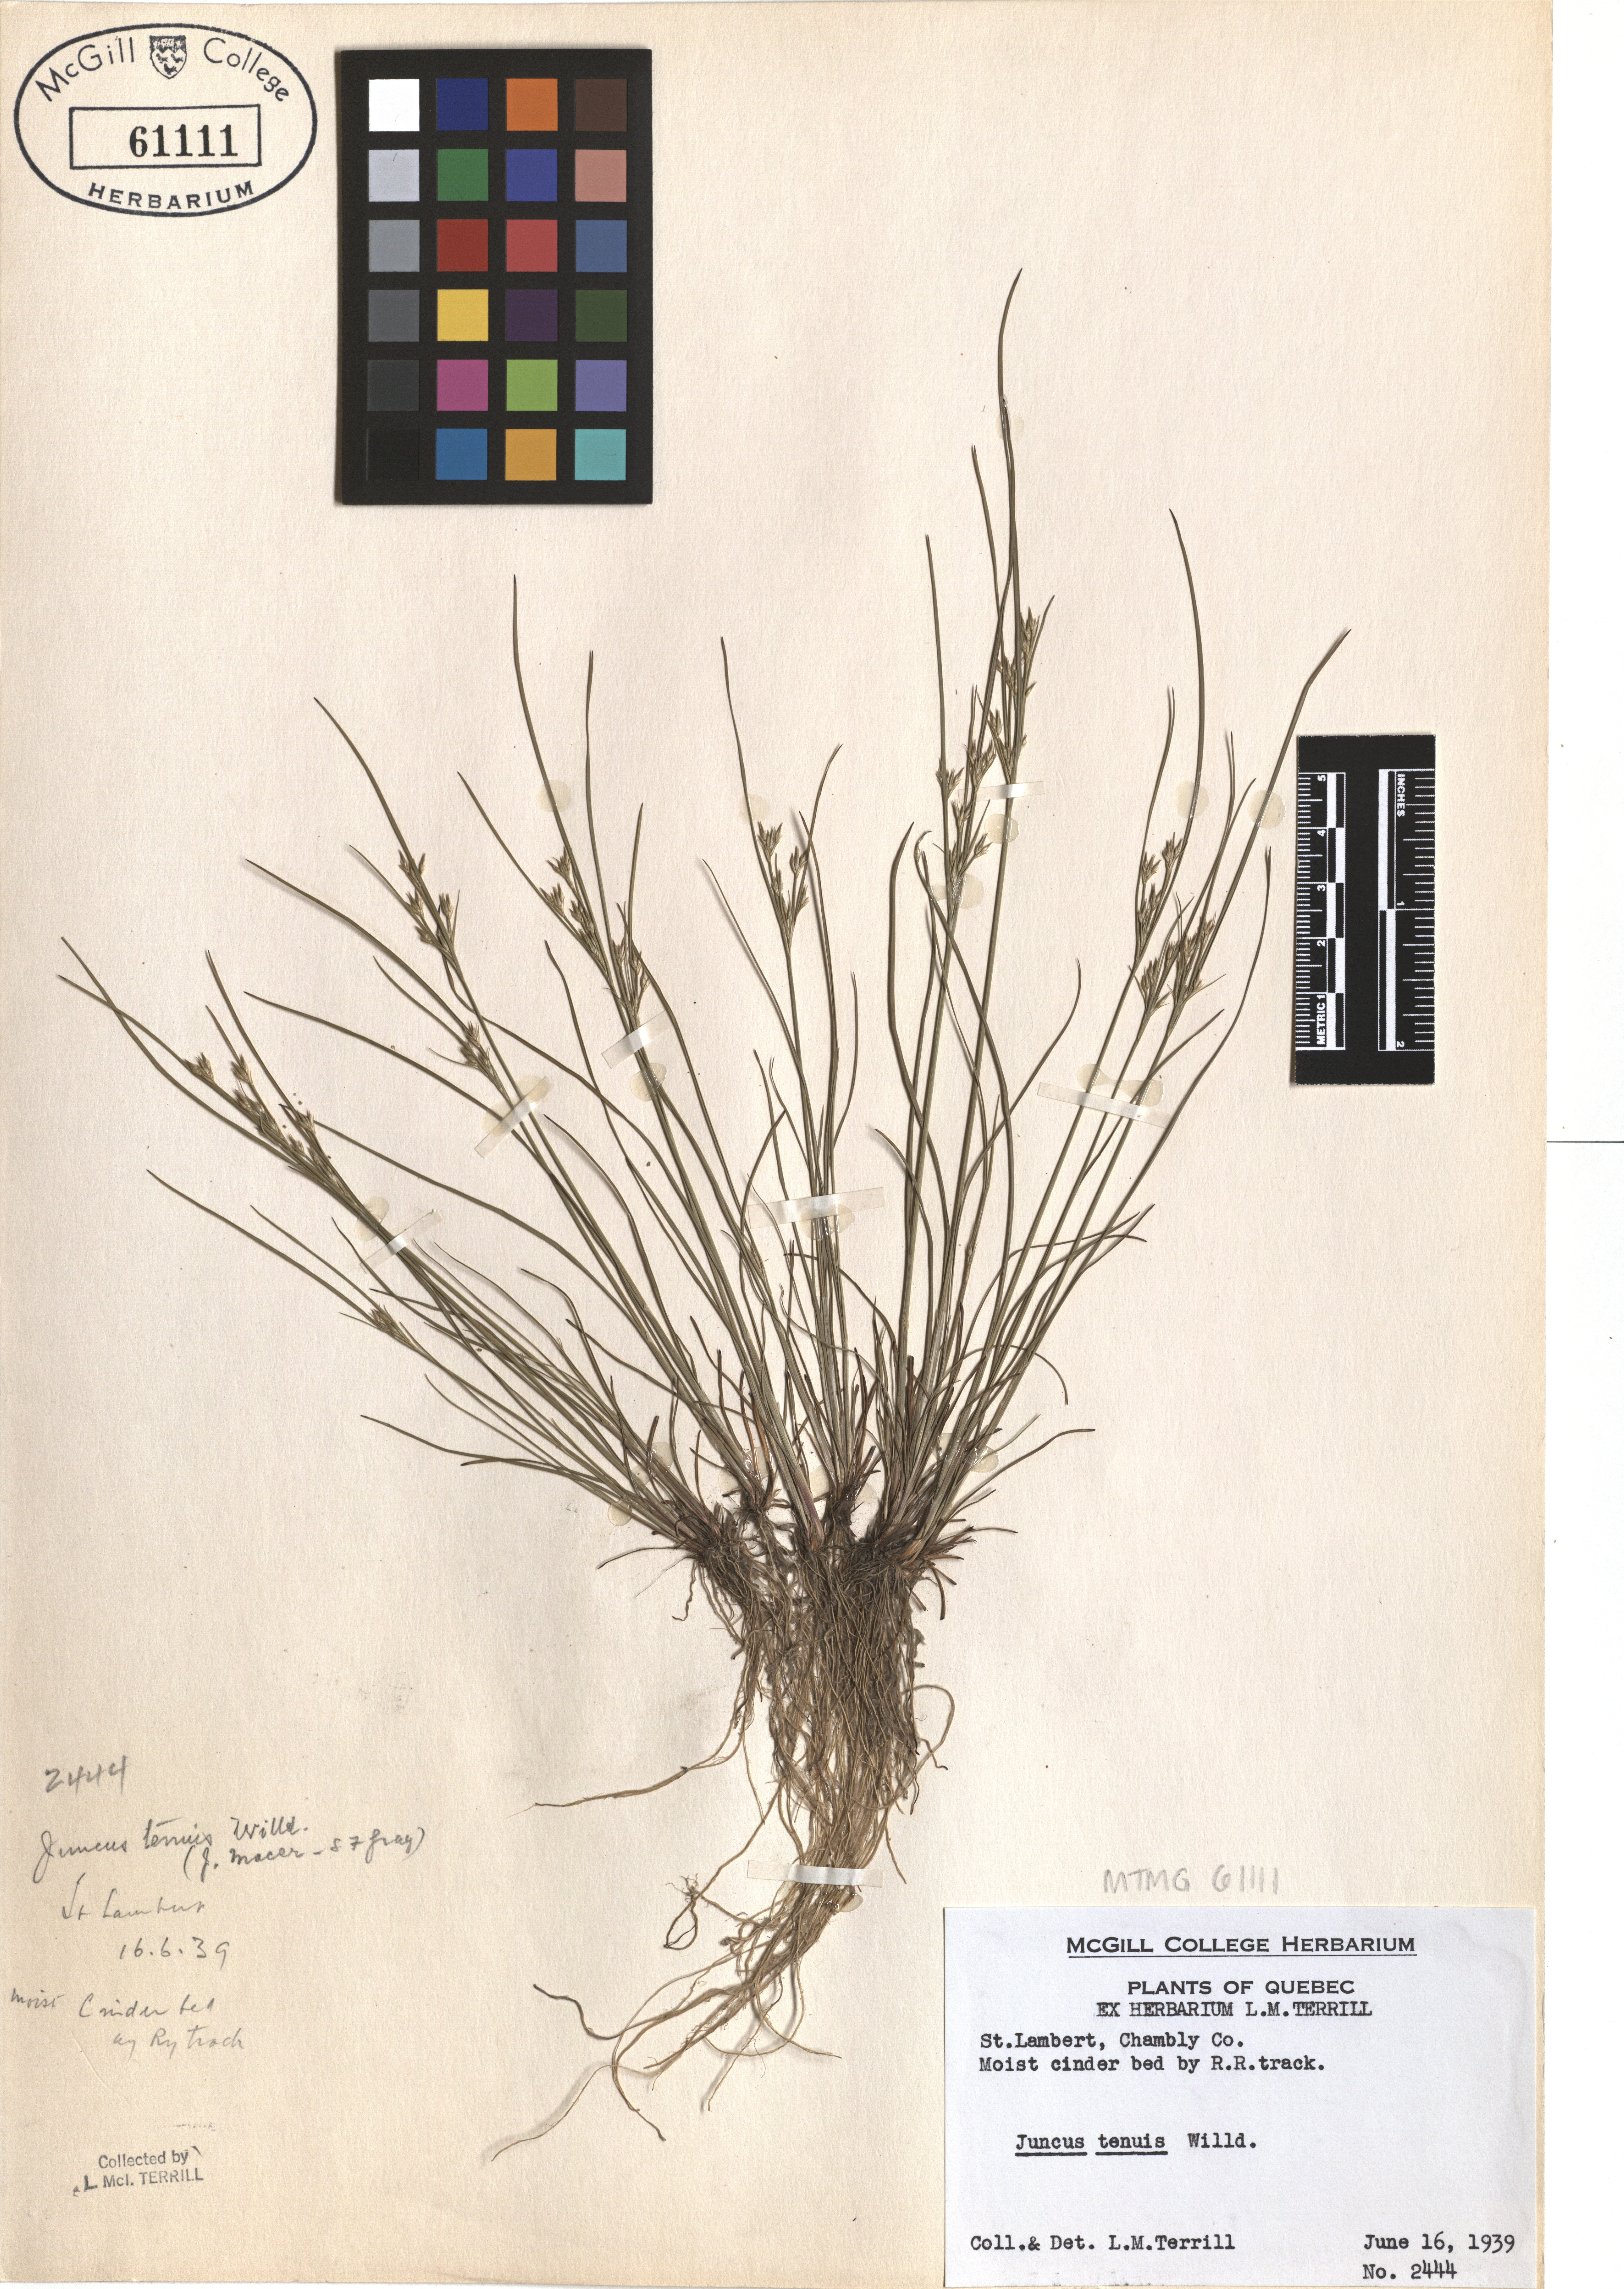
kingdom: Plantae
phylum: Tracheophyta
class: Liliopsida
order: Poales
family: Juncaceae
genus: Juncus
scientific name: Juncus tenuis
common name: Slender rush
